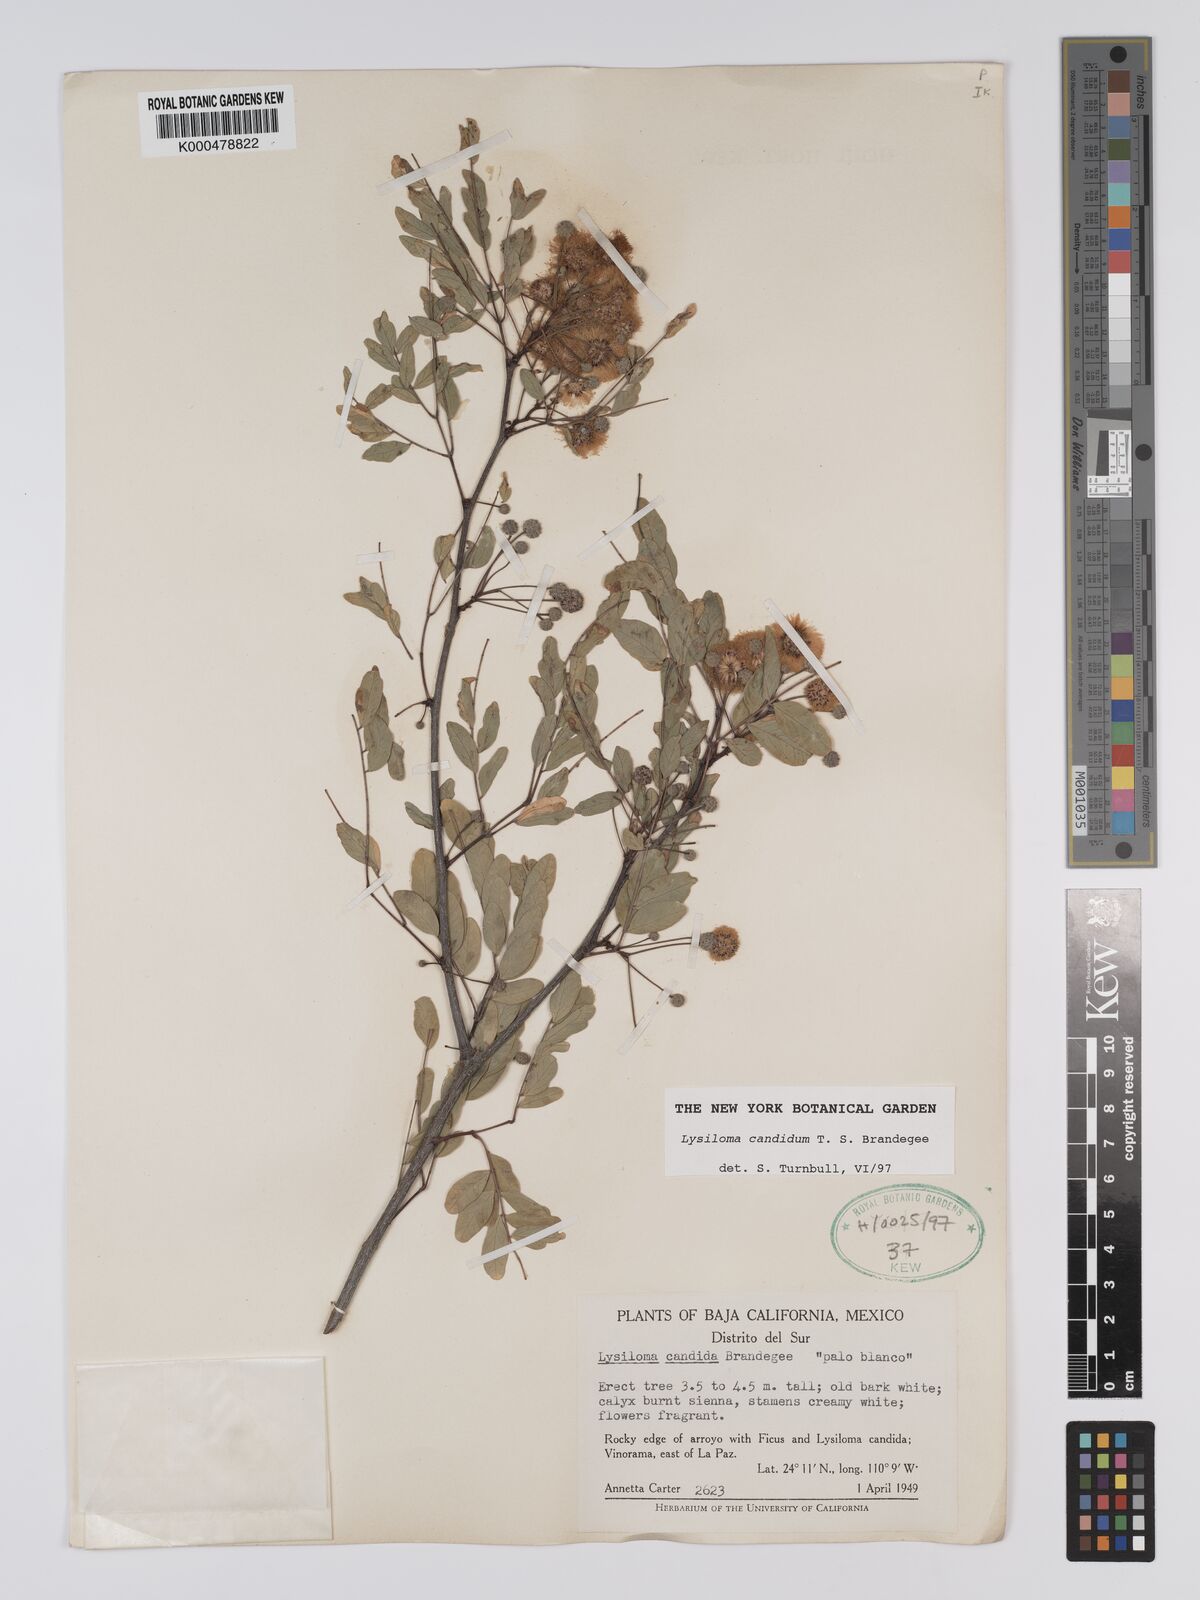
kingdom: Plantae
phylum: Tracheophyta
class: Magnoliopsida
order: Fabales
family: Fabaceae
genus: Lysiloma
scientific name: Lysiloma candidum
